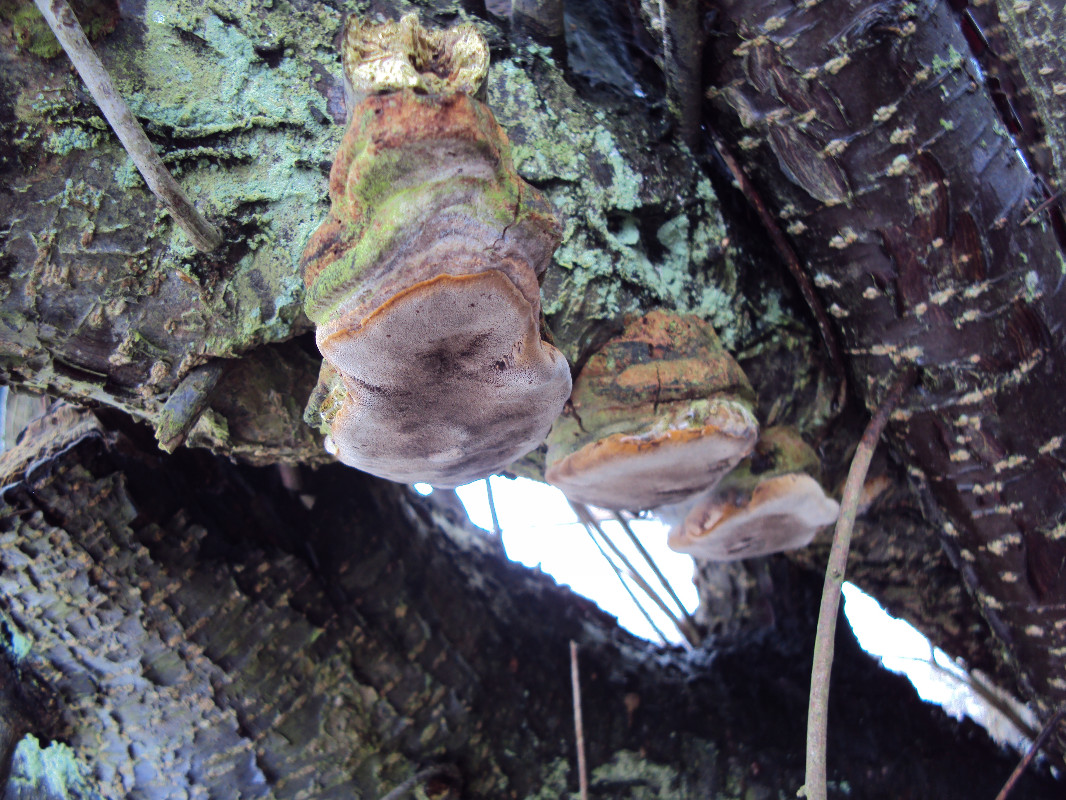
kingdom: Fungi
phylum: Basidiomycota
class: Agaricomycetes
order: Hymenochaetales
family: Hymenochaetaceae
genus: Phellinus
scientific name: Phellinus pomaceus
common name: blomme-ildporesvamp
